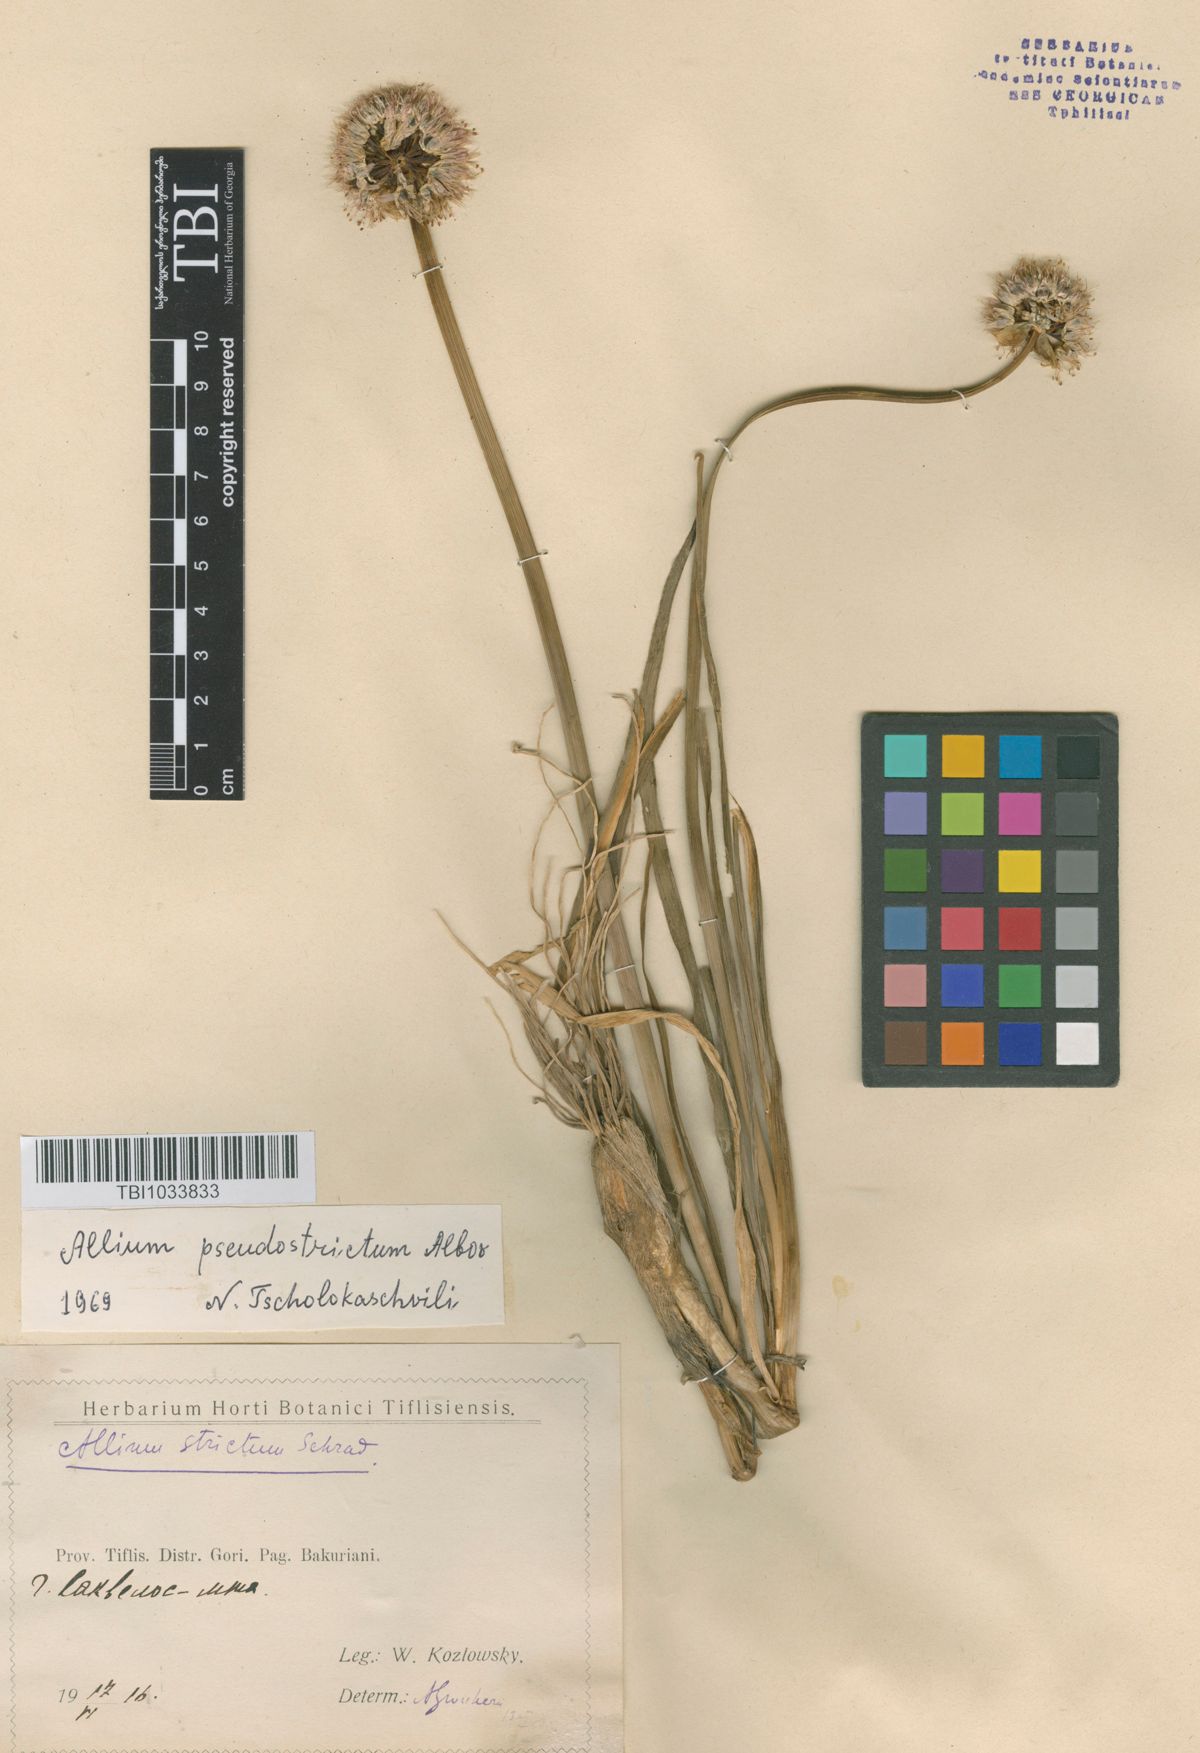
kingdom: Plantae
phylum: Tracheophyta
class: Liliopsida
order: Asparagales
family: Amaryllidaceae
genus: Allium
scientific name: Allium pseudostrictum
